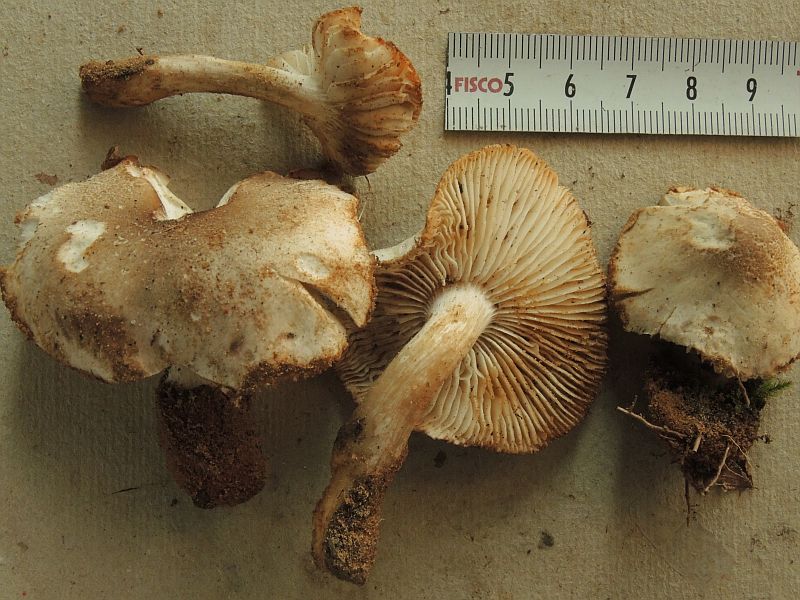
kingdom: Fungi
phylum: Basidiomycota
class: Agaricomycetes
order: Agaricales
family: Tricholomataceae
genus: Tricholoma
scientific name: Tricholoma saponaceum
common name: Soapy trich
